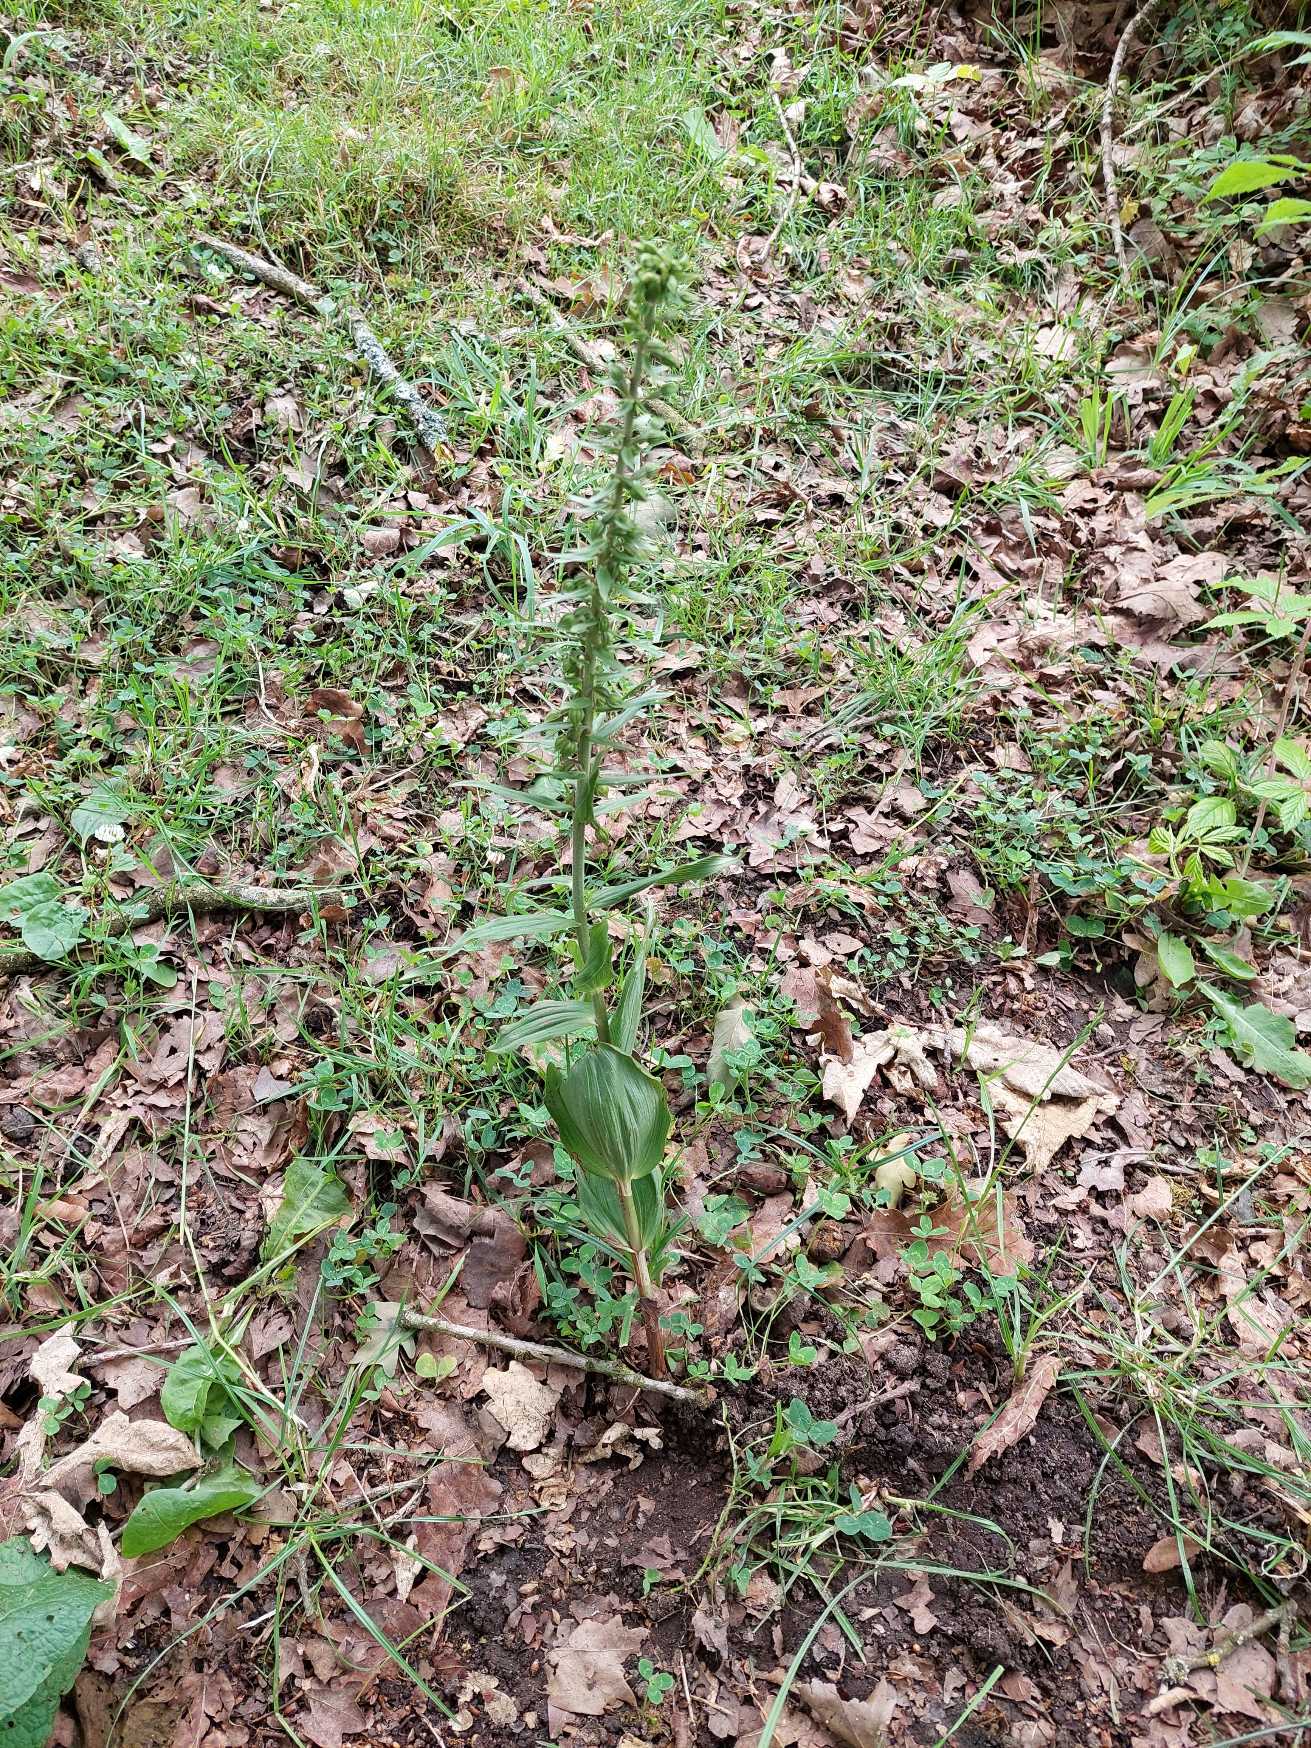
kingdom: Plantae
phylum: Tracheophyta
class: Liliopsida
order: Asparagales
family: Orchidaceae
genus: Epipactis
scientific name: Epipactis helleborine
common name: Skov-hullæbe
